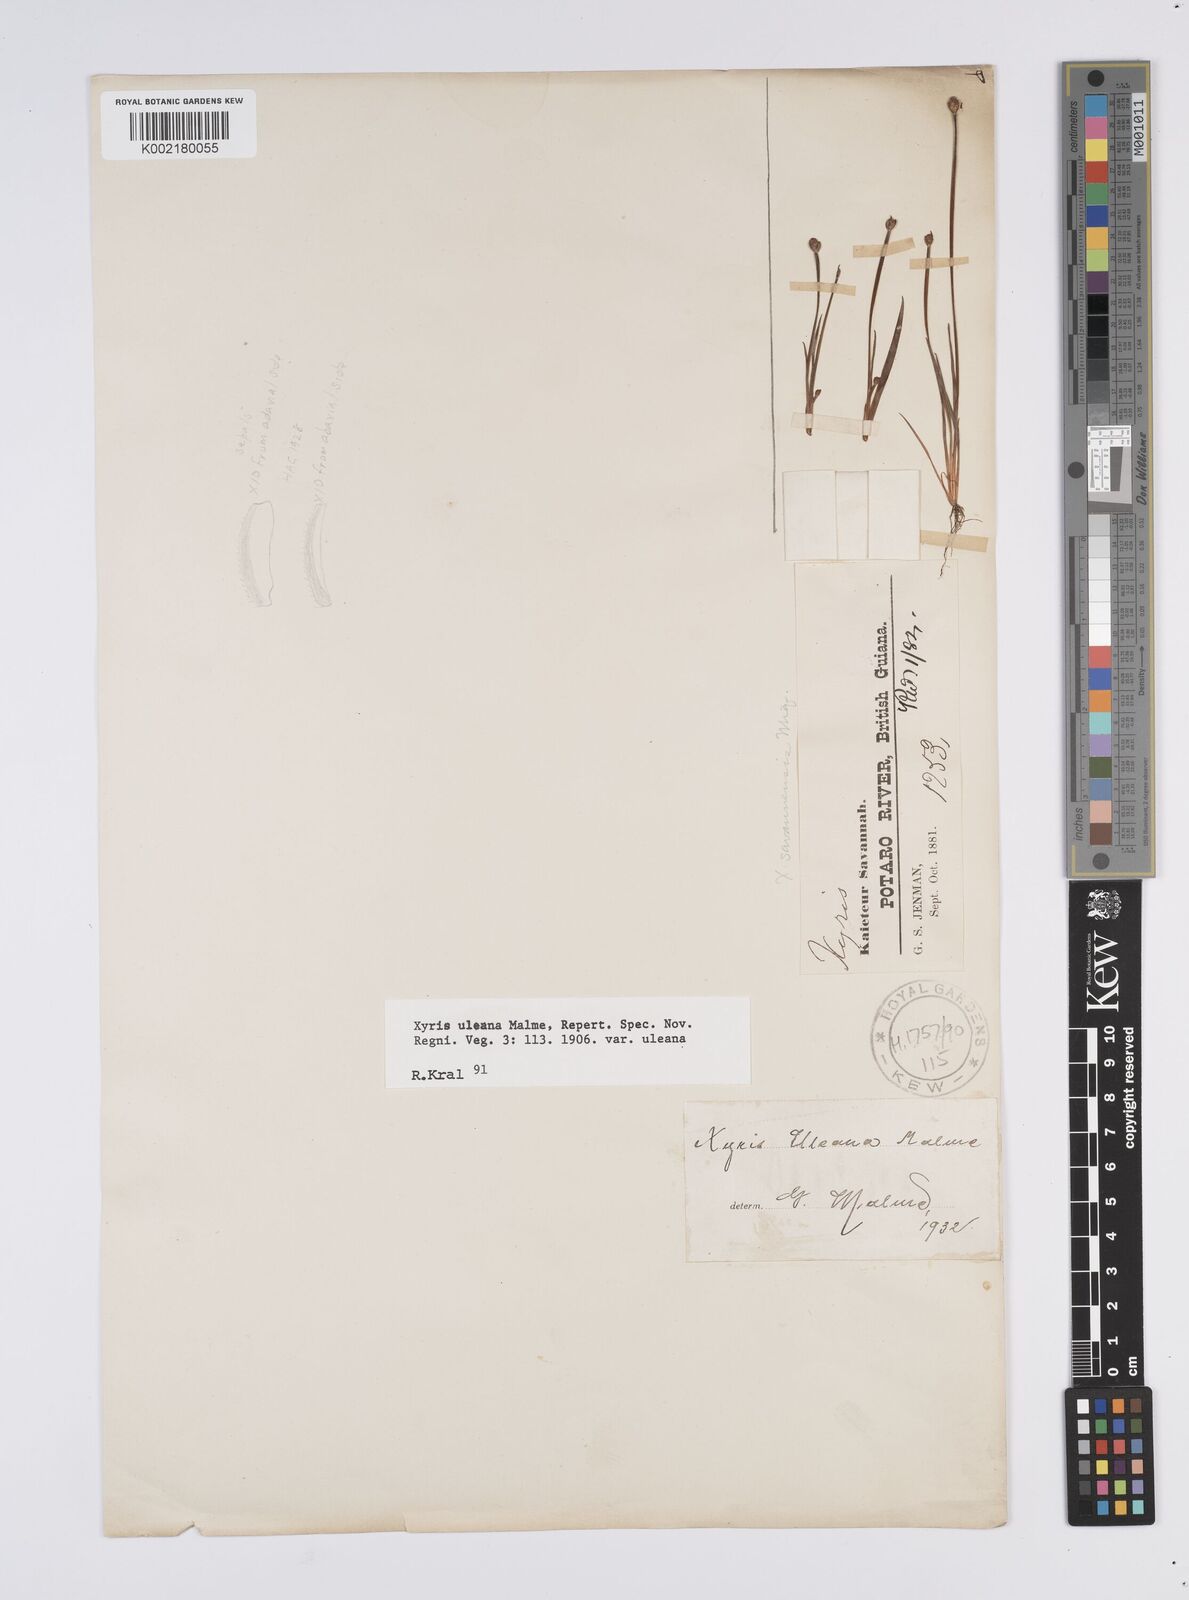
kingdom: Plantae
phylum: Tracheophyta
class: Liliopsida
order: Poales
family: Xyridaceae
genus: Xyris
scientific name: Xyris uleana
